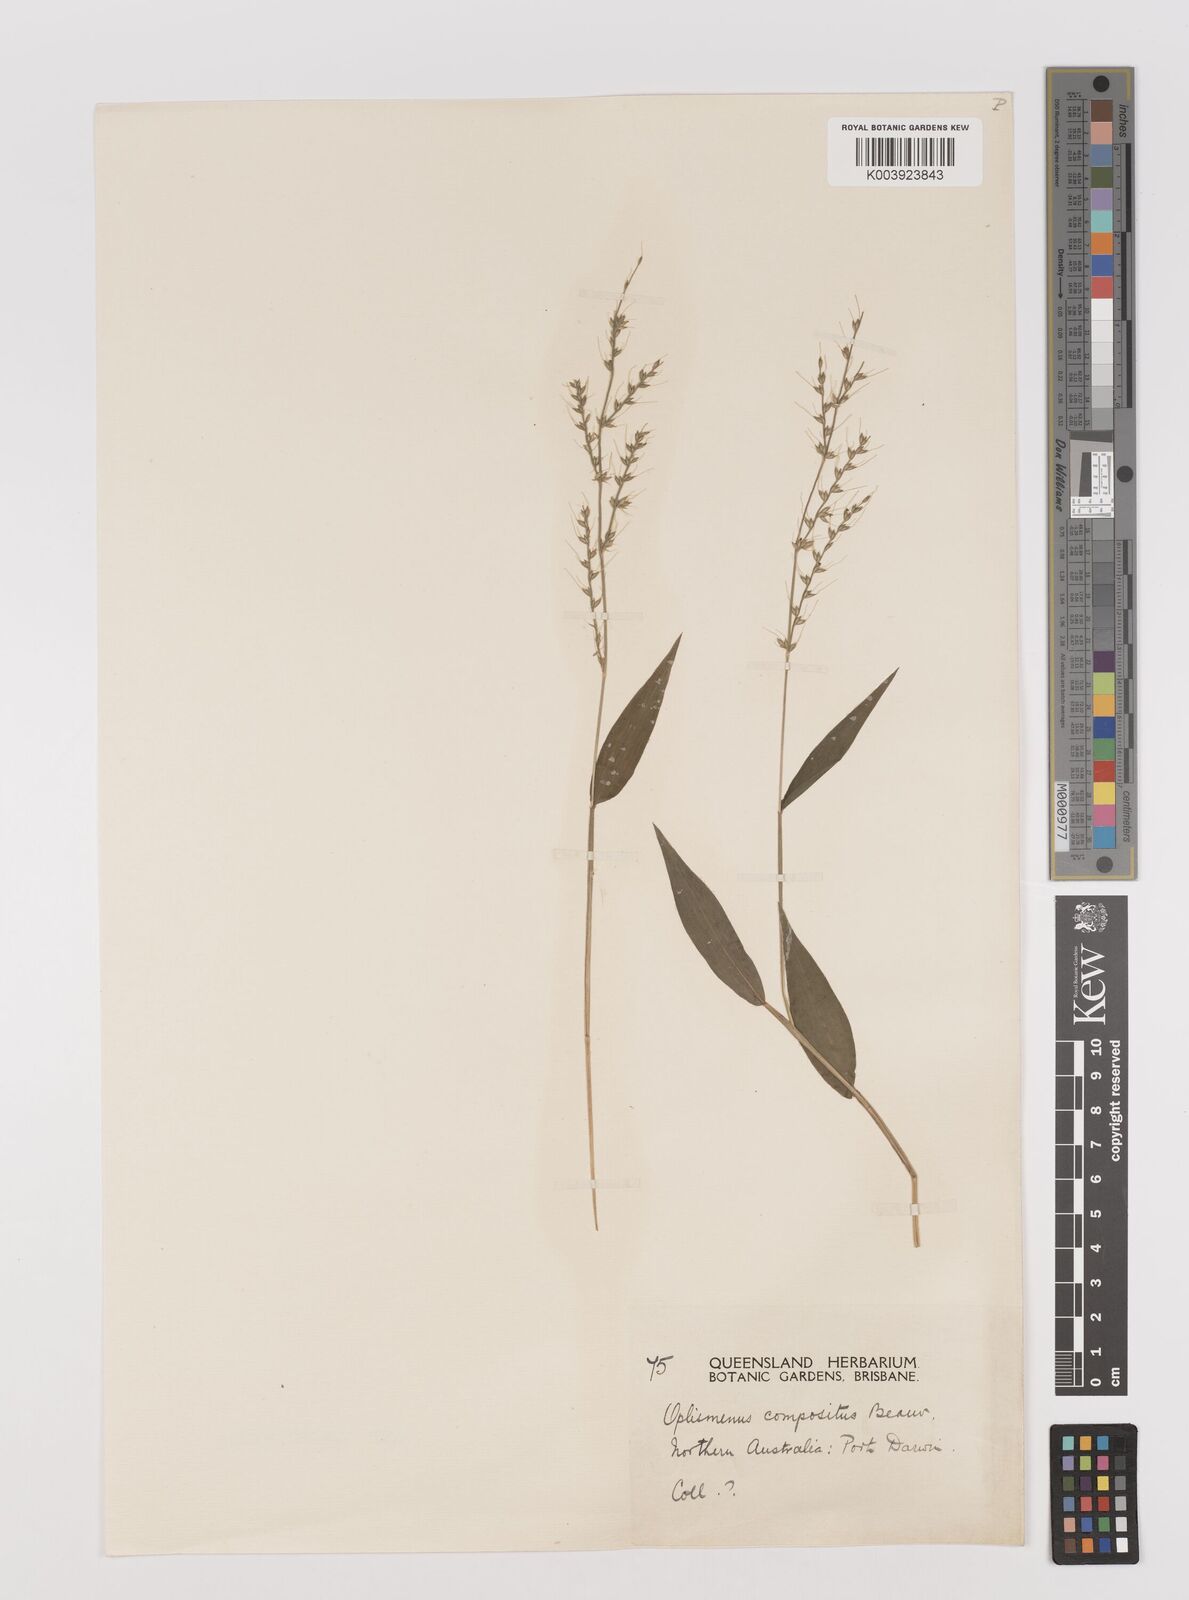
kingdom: Plantae
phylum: Tracheophyta
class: Liliopsida
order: Poales
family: Poaceae
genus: Oplismenus
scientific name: Oplismenus compositus
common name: Running mountain grass
